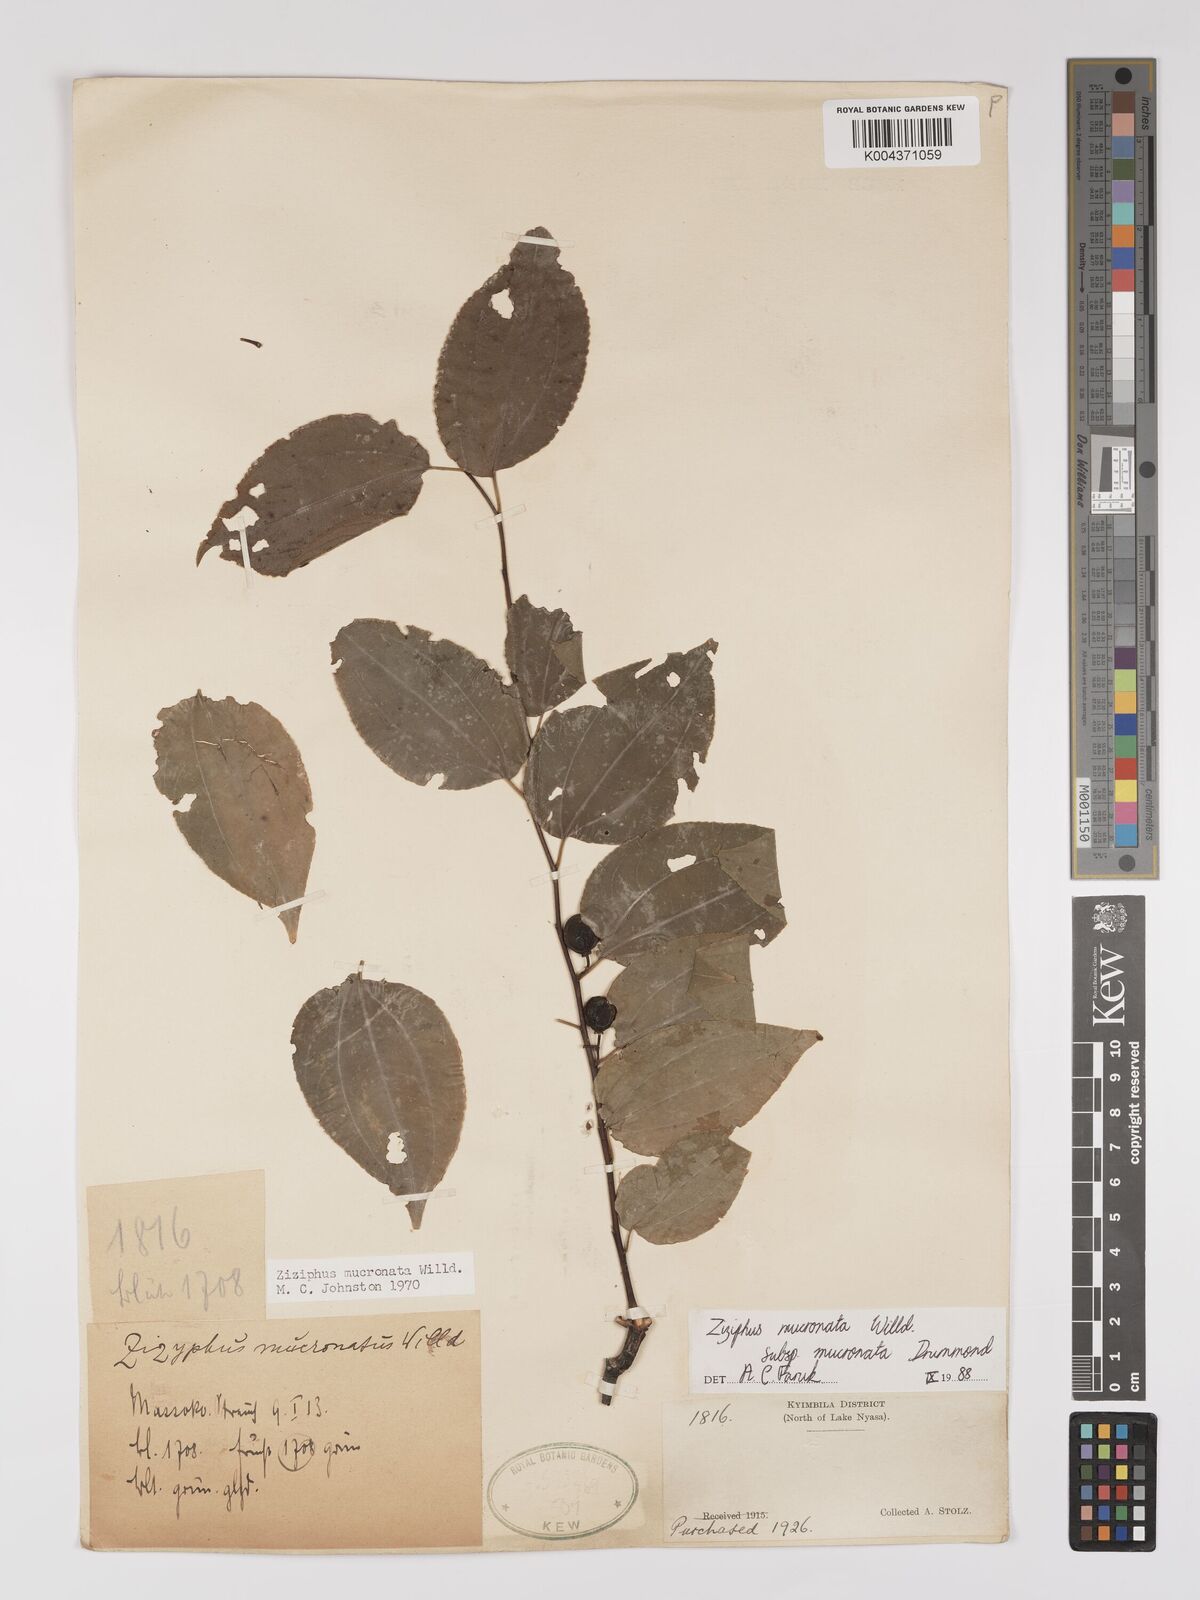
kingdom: Plantae
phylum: Tracheophyta
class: Magnoliopsida
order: Rosales
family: Rhamnaceae
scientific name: Rhamnaceae
